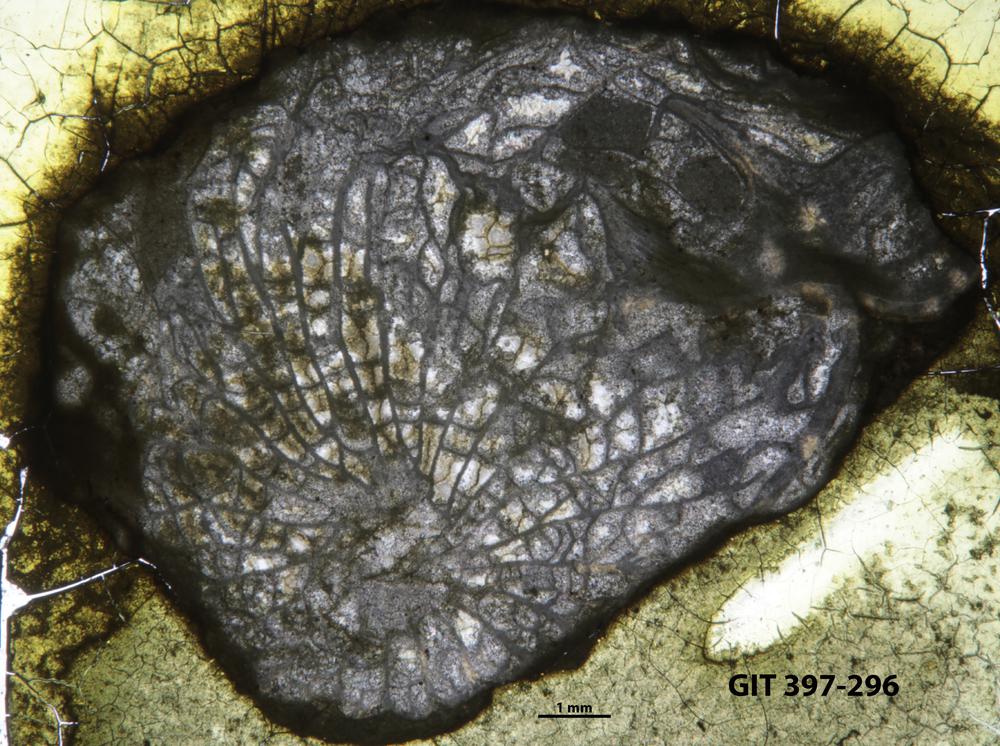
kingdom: Animalia
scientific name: Animalia
